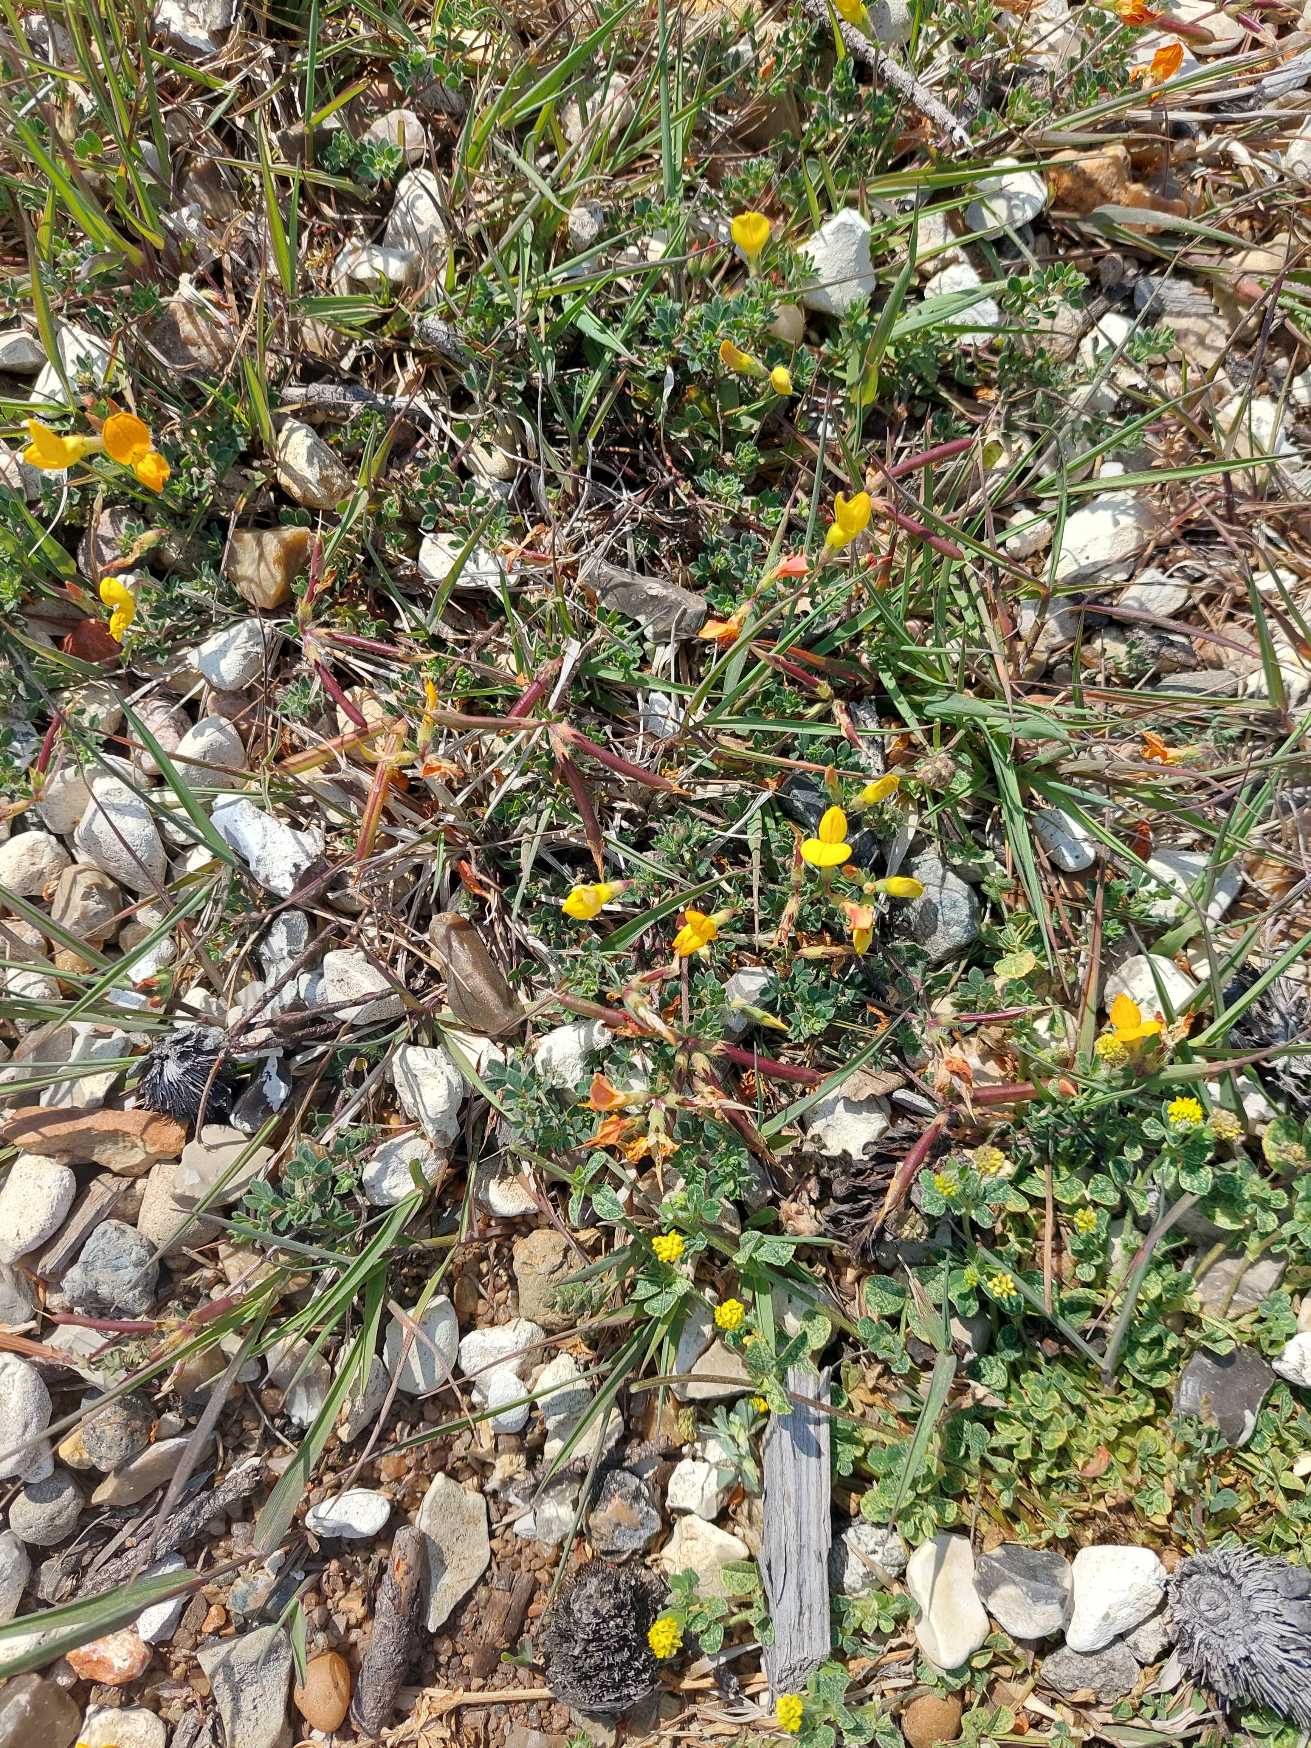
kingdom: Plantae
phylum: Tracheophyta
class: Magnoliopsida
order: Fabales
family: Fabaceae
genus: Lotus
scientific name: Lotus corniculatus
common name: Almindelig kællingetand
